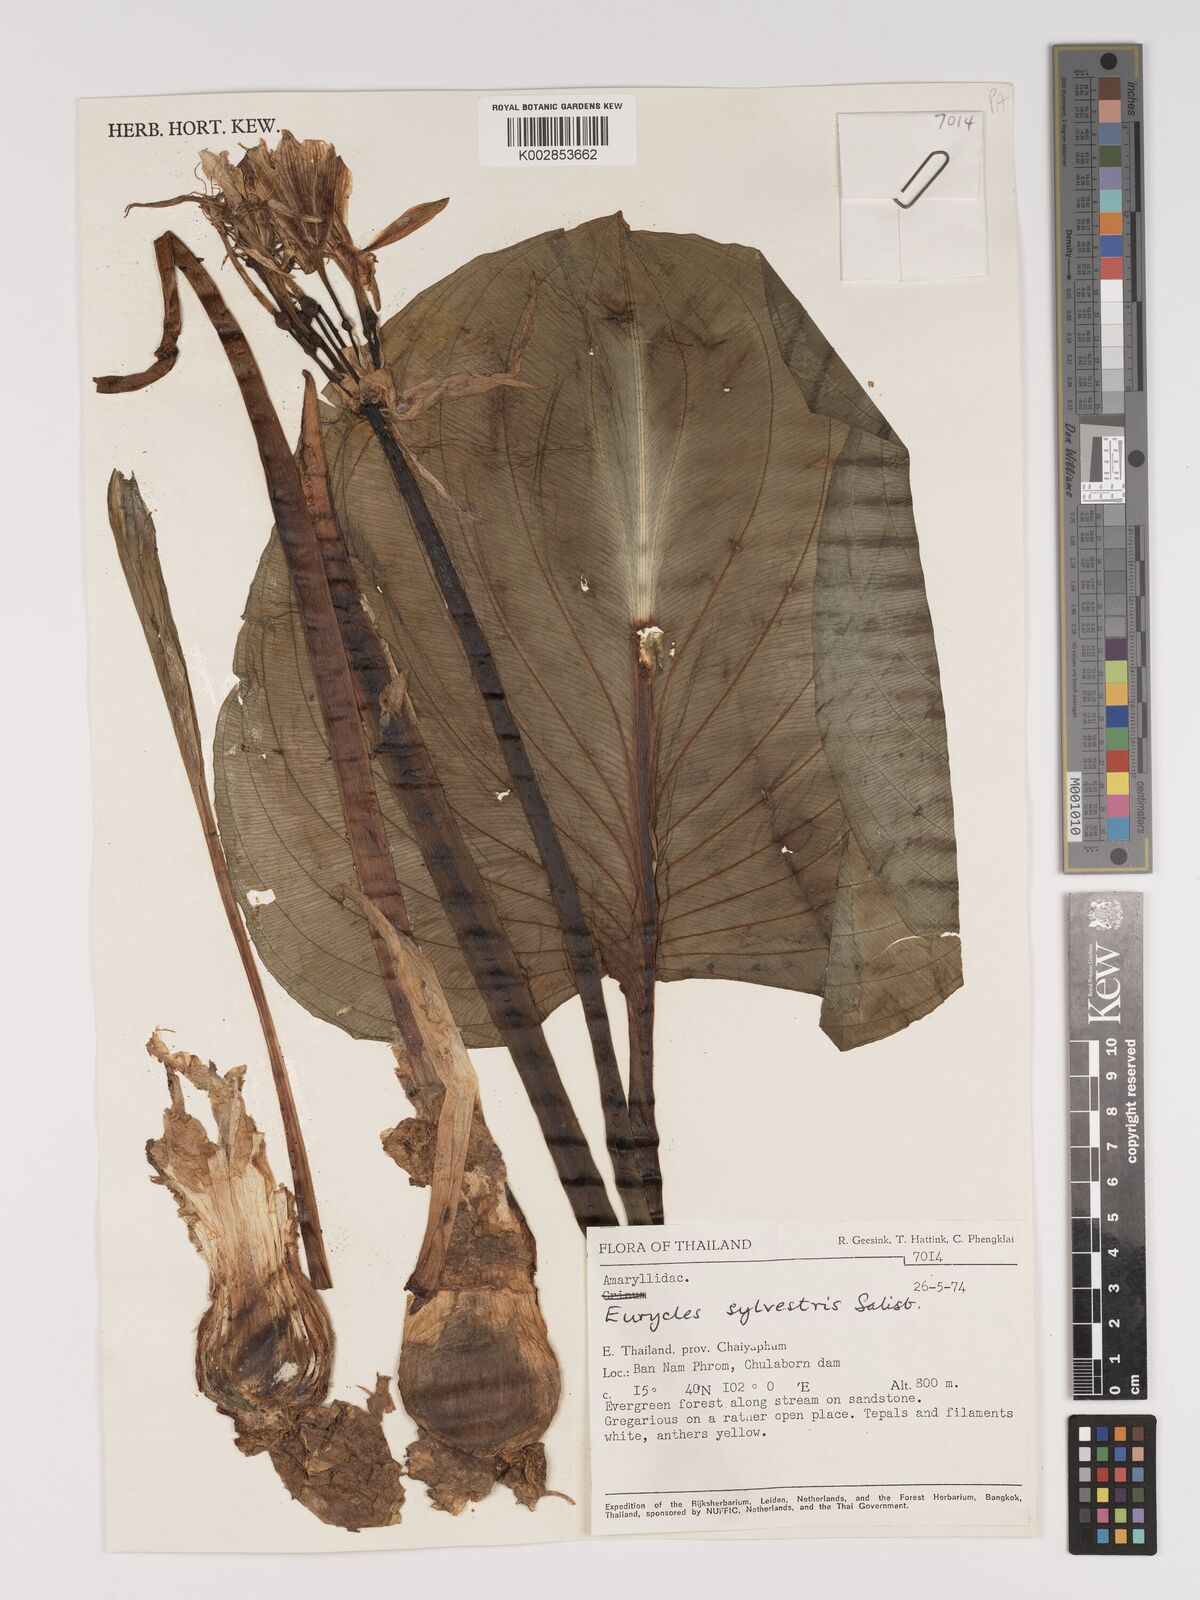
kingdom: Plantae
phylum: Tracheophyta
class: Liliopsida
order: Asparagales
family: Amaryllidaceae
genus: Proiphys
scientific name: Proiphys amboinensis
